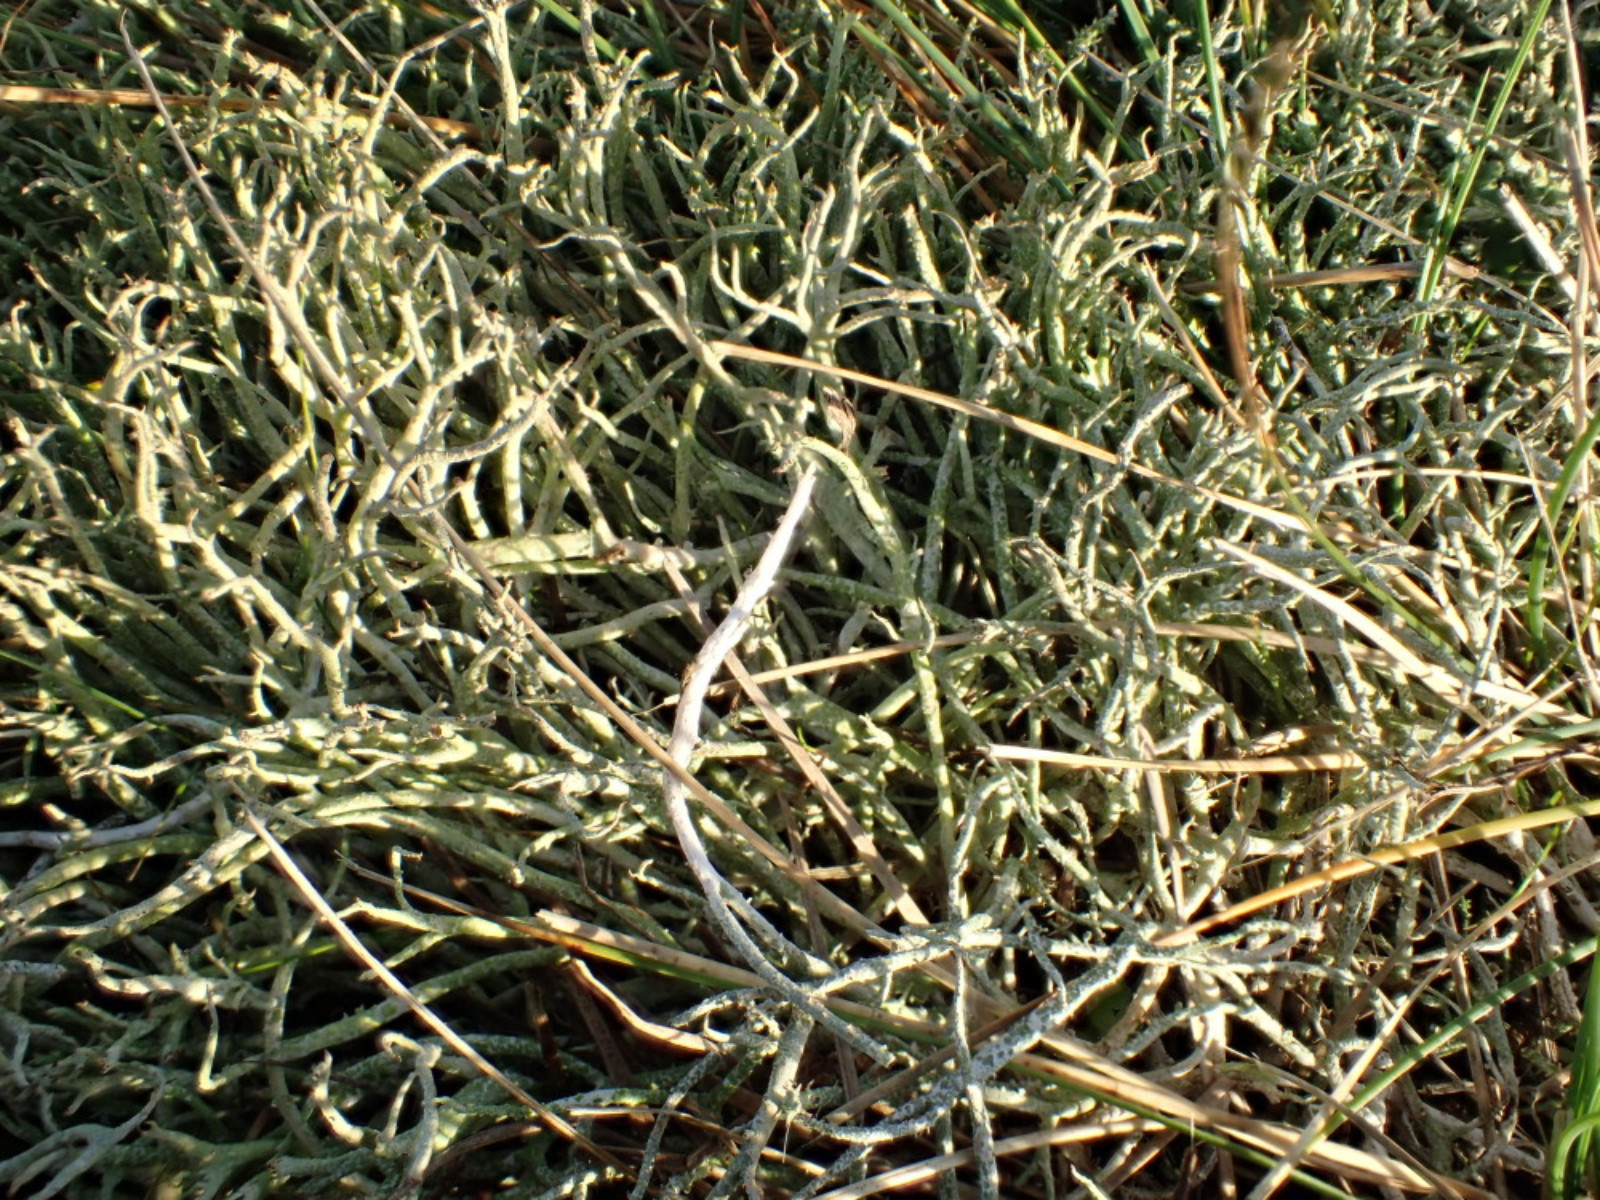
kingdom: Fungi
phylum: Ascomycota
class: Lecanoromycetes
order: Lecanorales
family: Cladoniaceae
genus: Cladonia
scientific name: Cladonia furcata
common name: kløftet bægerlav
